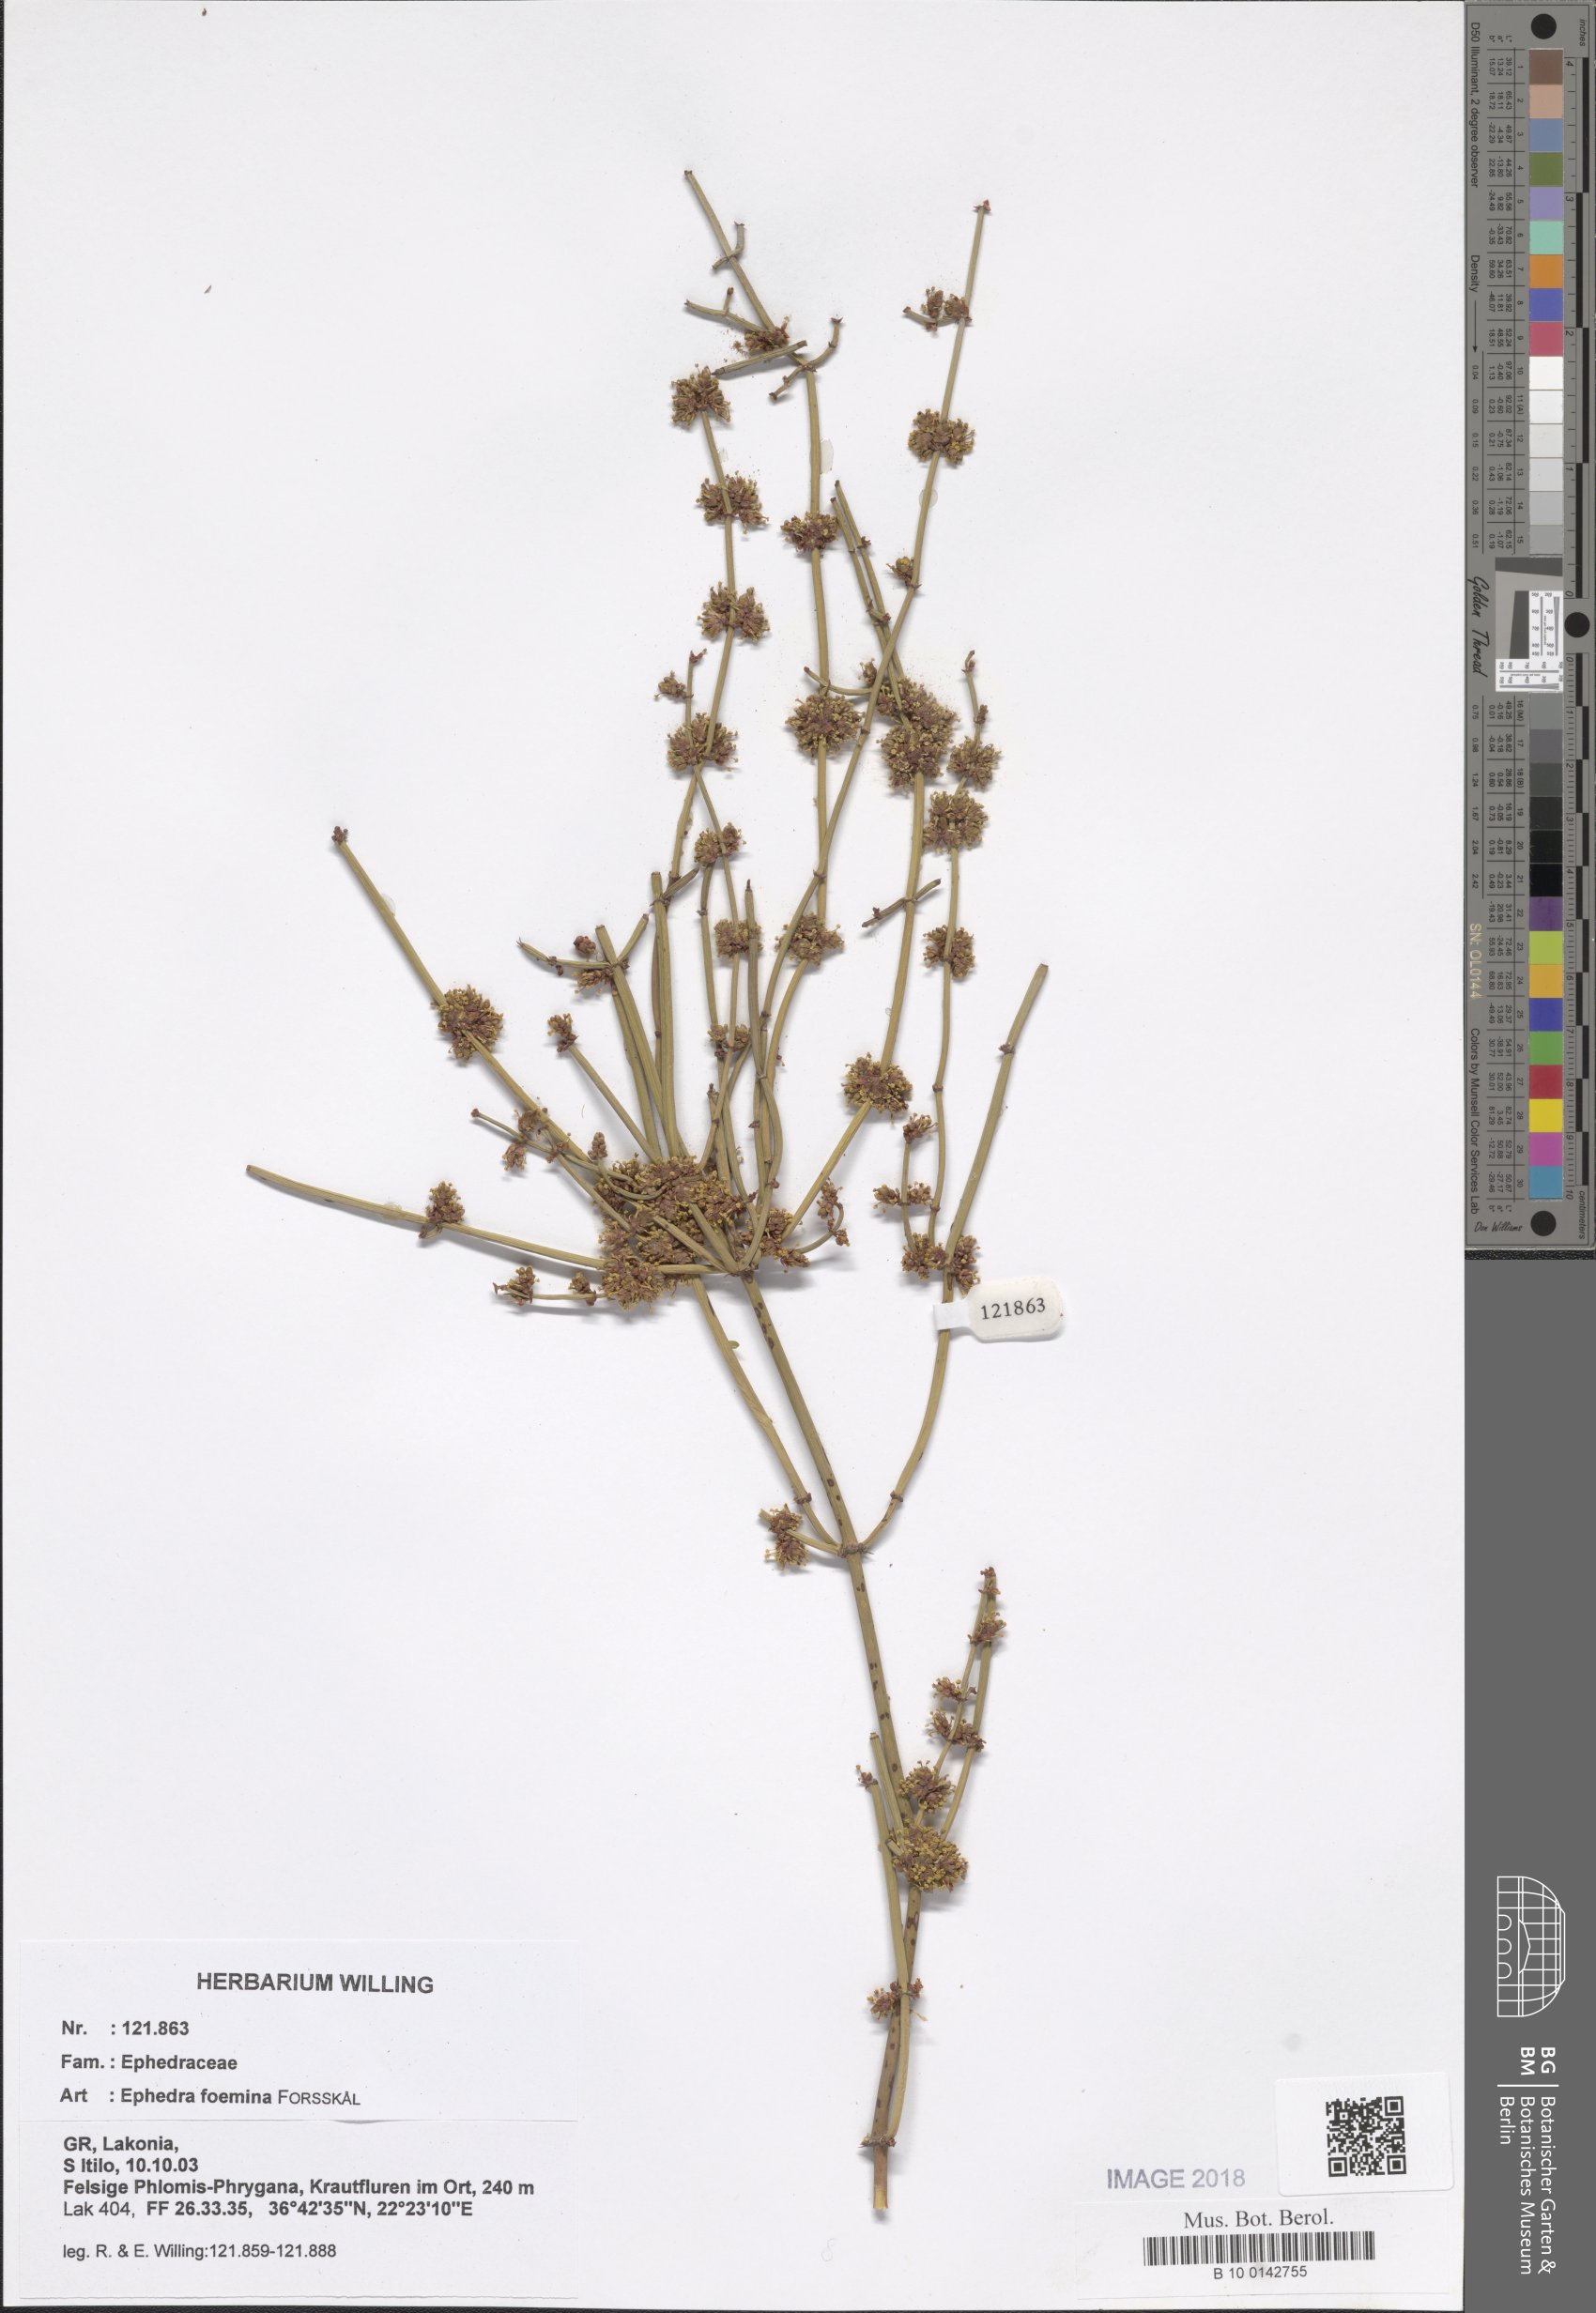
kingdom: Plantae
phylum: Tracheophyta
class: Gnetopsida
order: Ephedrales
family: Ephedraceae
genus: Ephedra
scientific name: Ephedra foeminea
